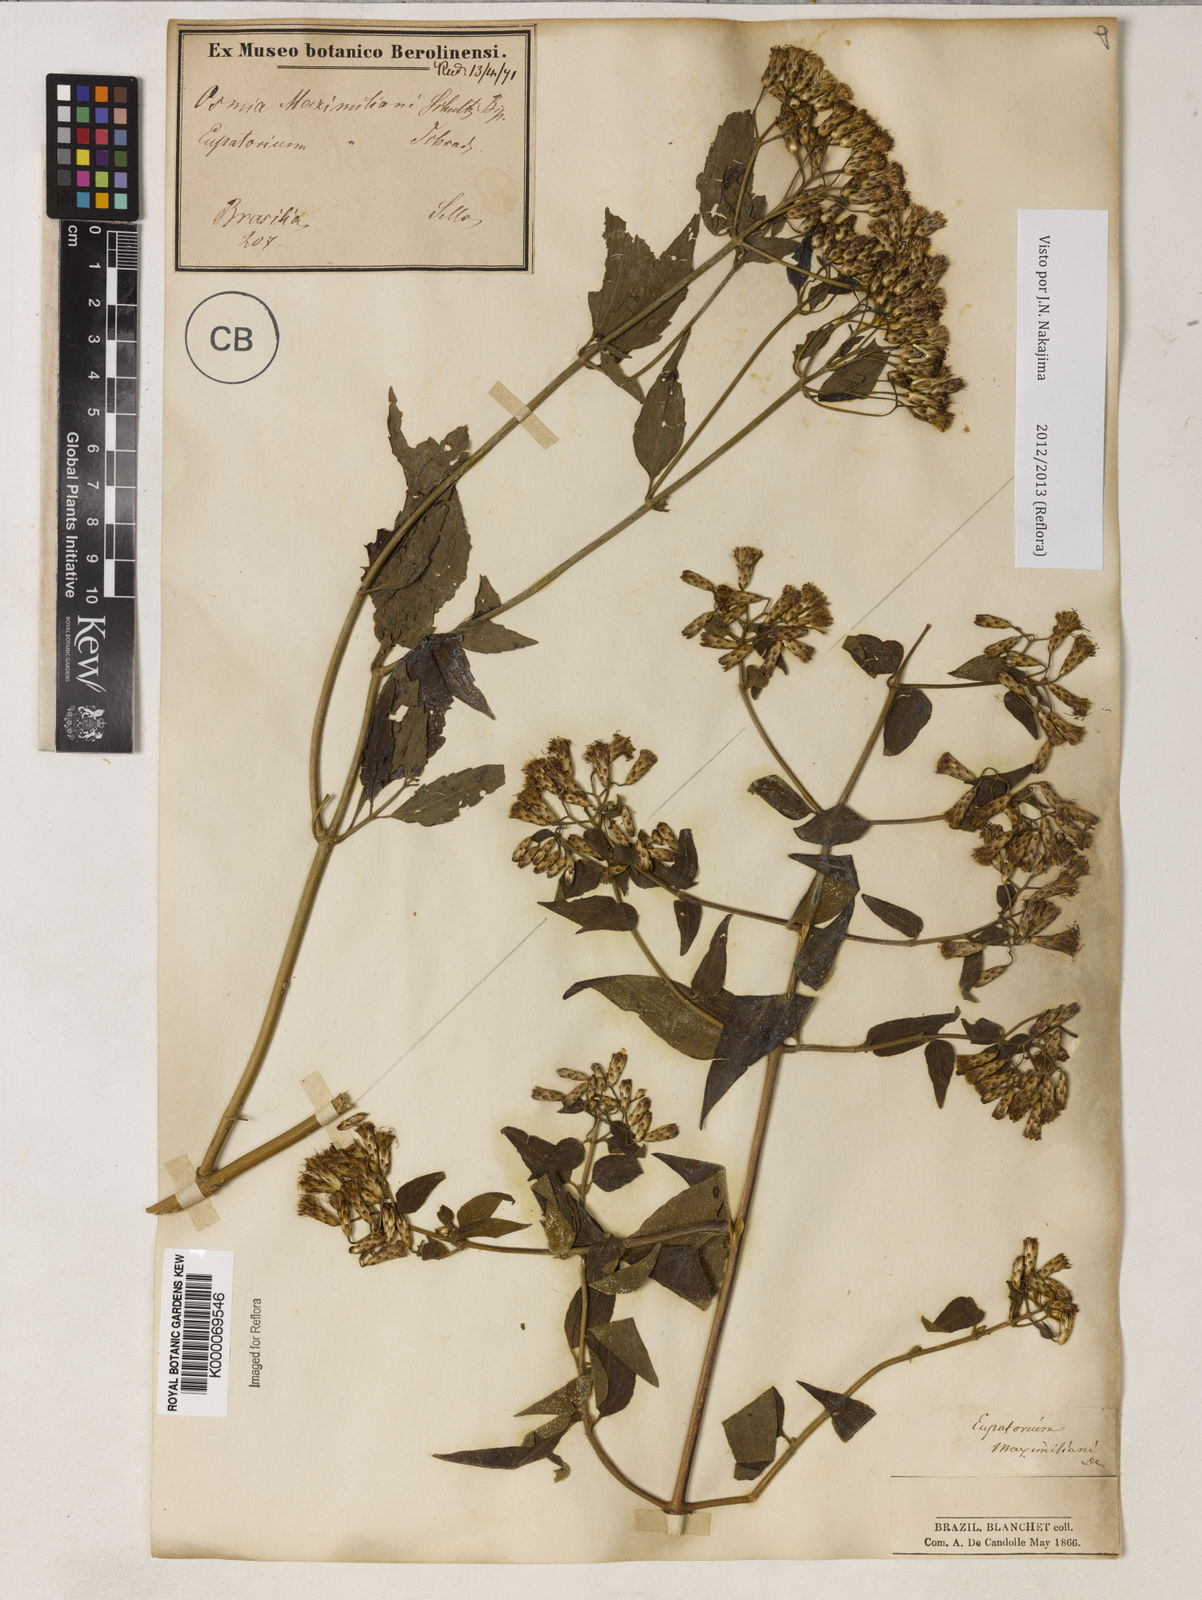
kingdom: Plantae
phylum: Tracheophyta
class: Magnoliopsida
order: Asterales
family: Asteraceae
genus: Chromolaena
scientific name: Chromolaena maximiliani
